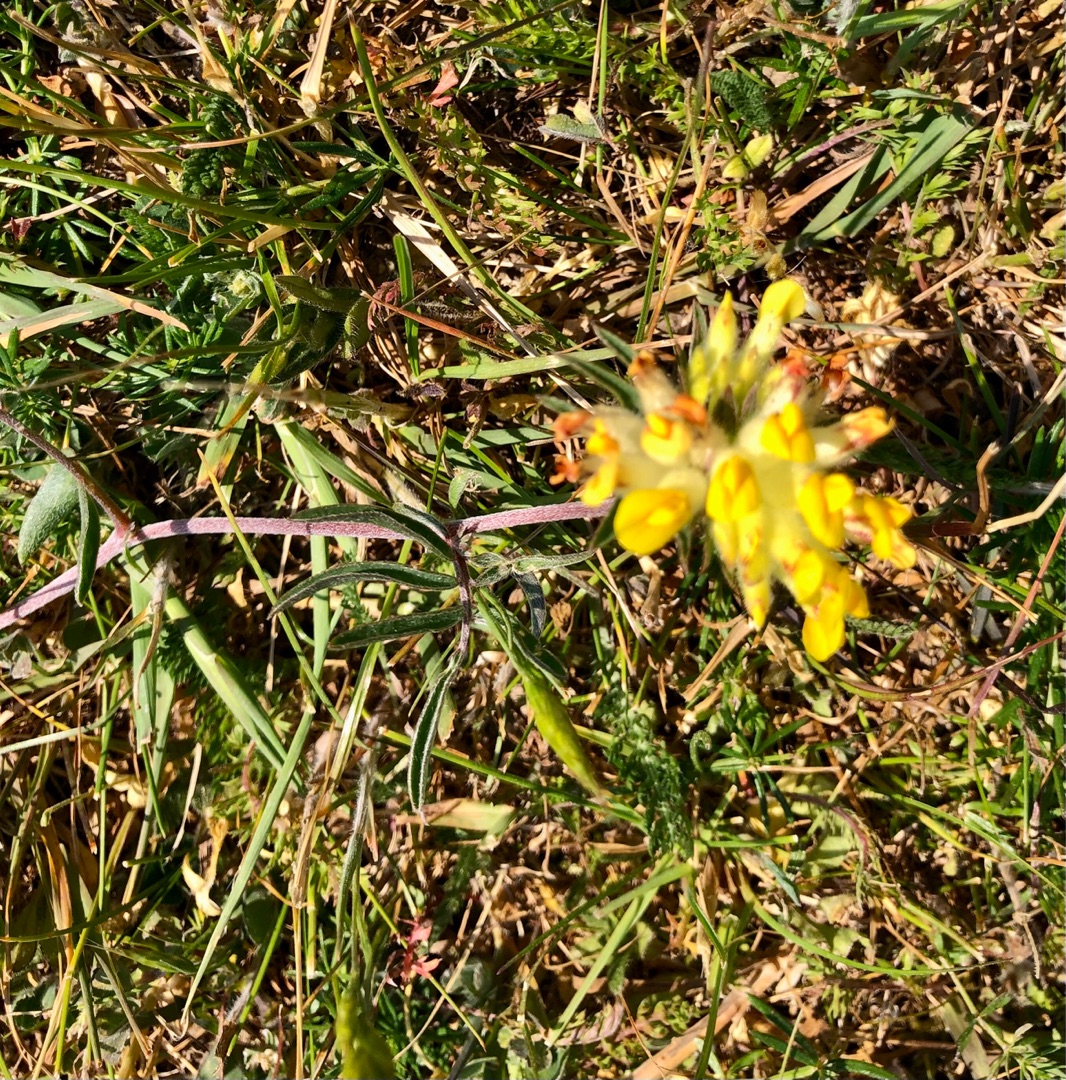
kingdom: Plantae
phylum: Tracheophyta
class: Magnoliopsida
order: Fabales
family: Fabaceae
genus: Anthyllis
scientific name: Anthyllis vulneraria
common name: Rundbælg
